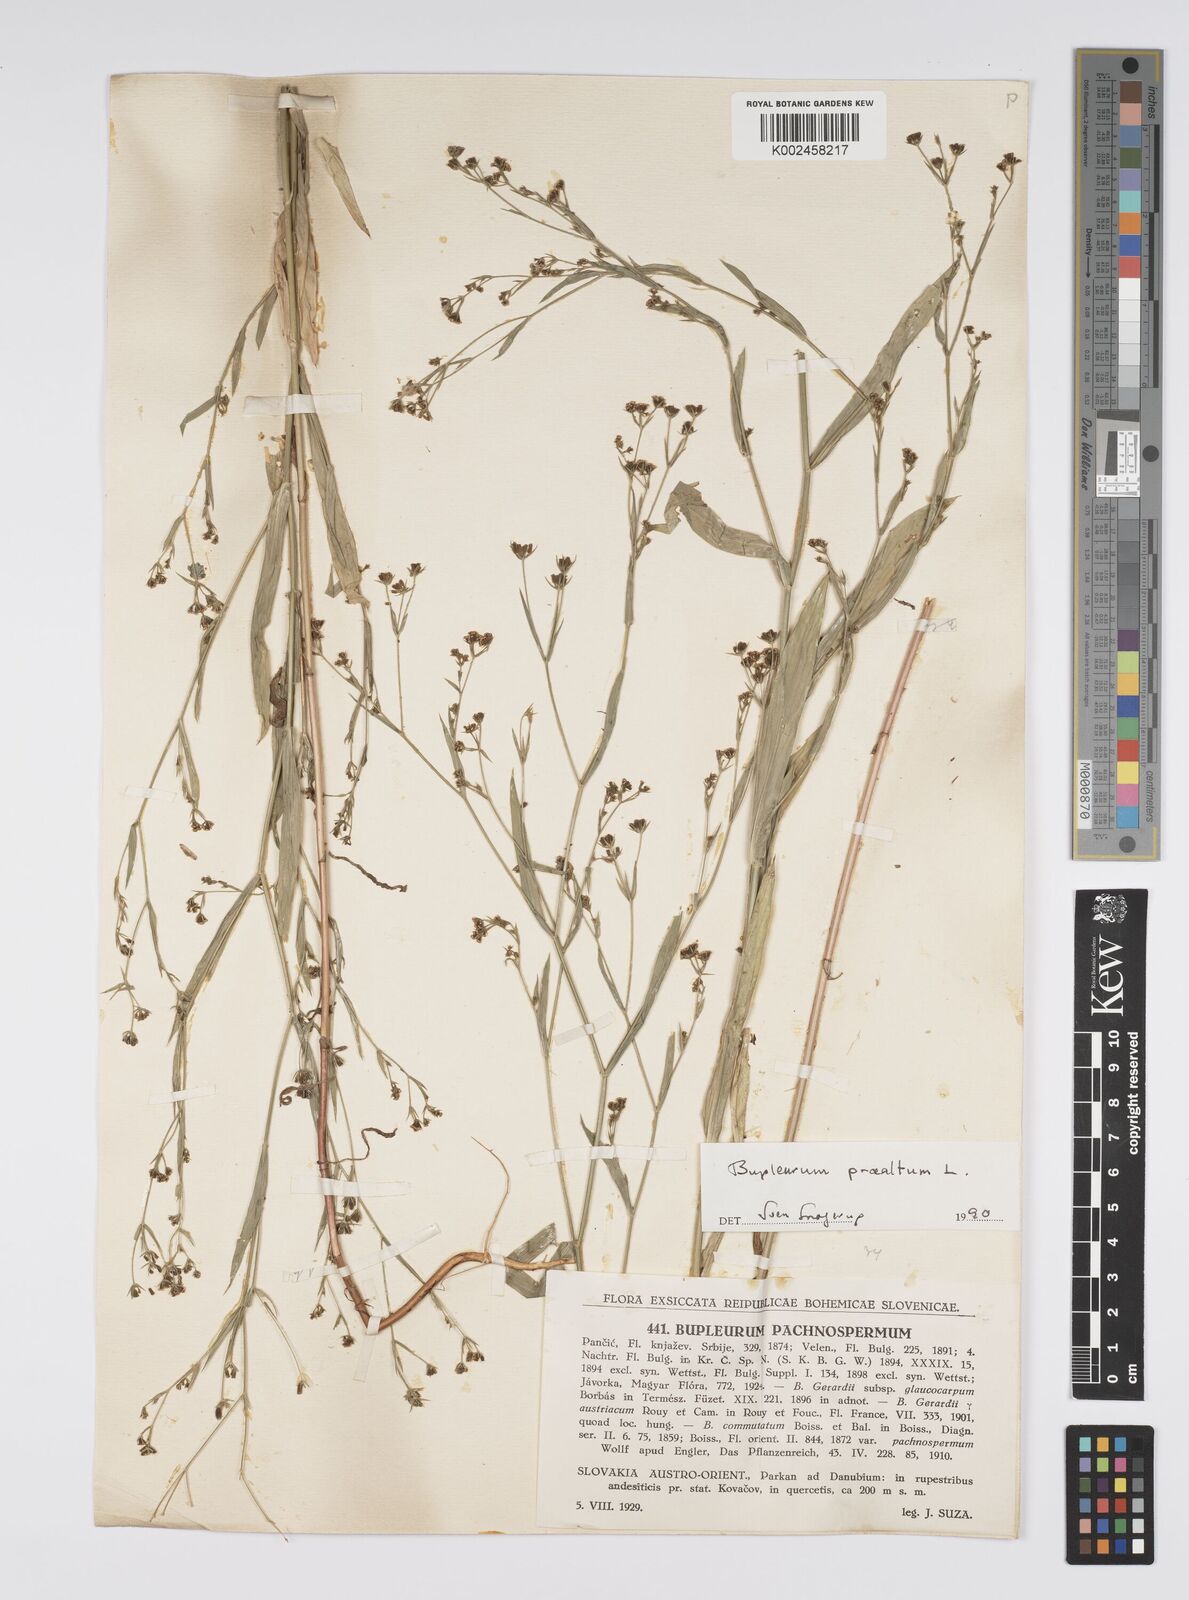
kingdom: Plantae
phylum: Tracheophyta
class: Magnoliopsida
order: Apiales
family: Apiaceae
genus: Bupleurum
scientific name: Bupleurum praealtum
